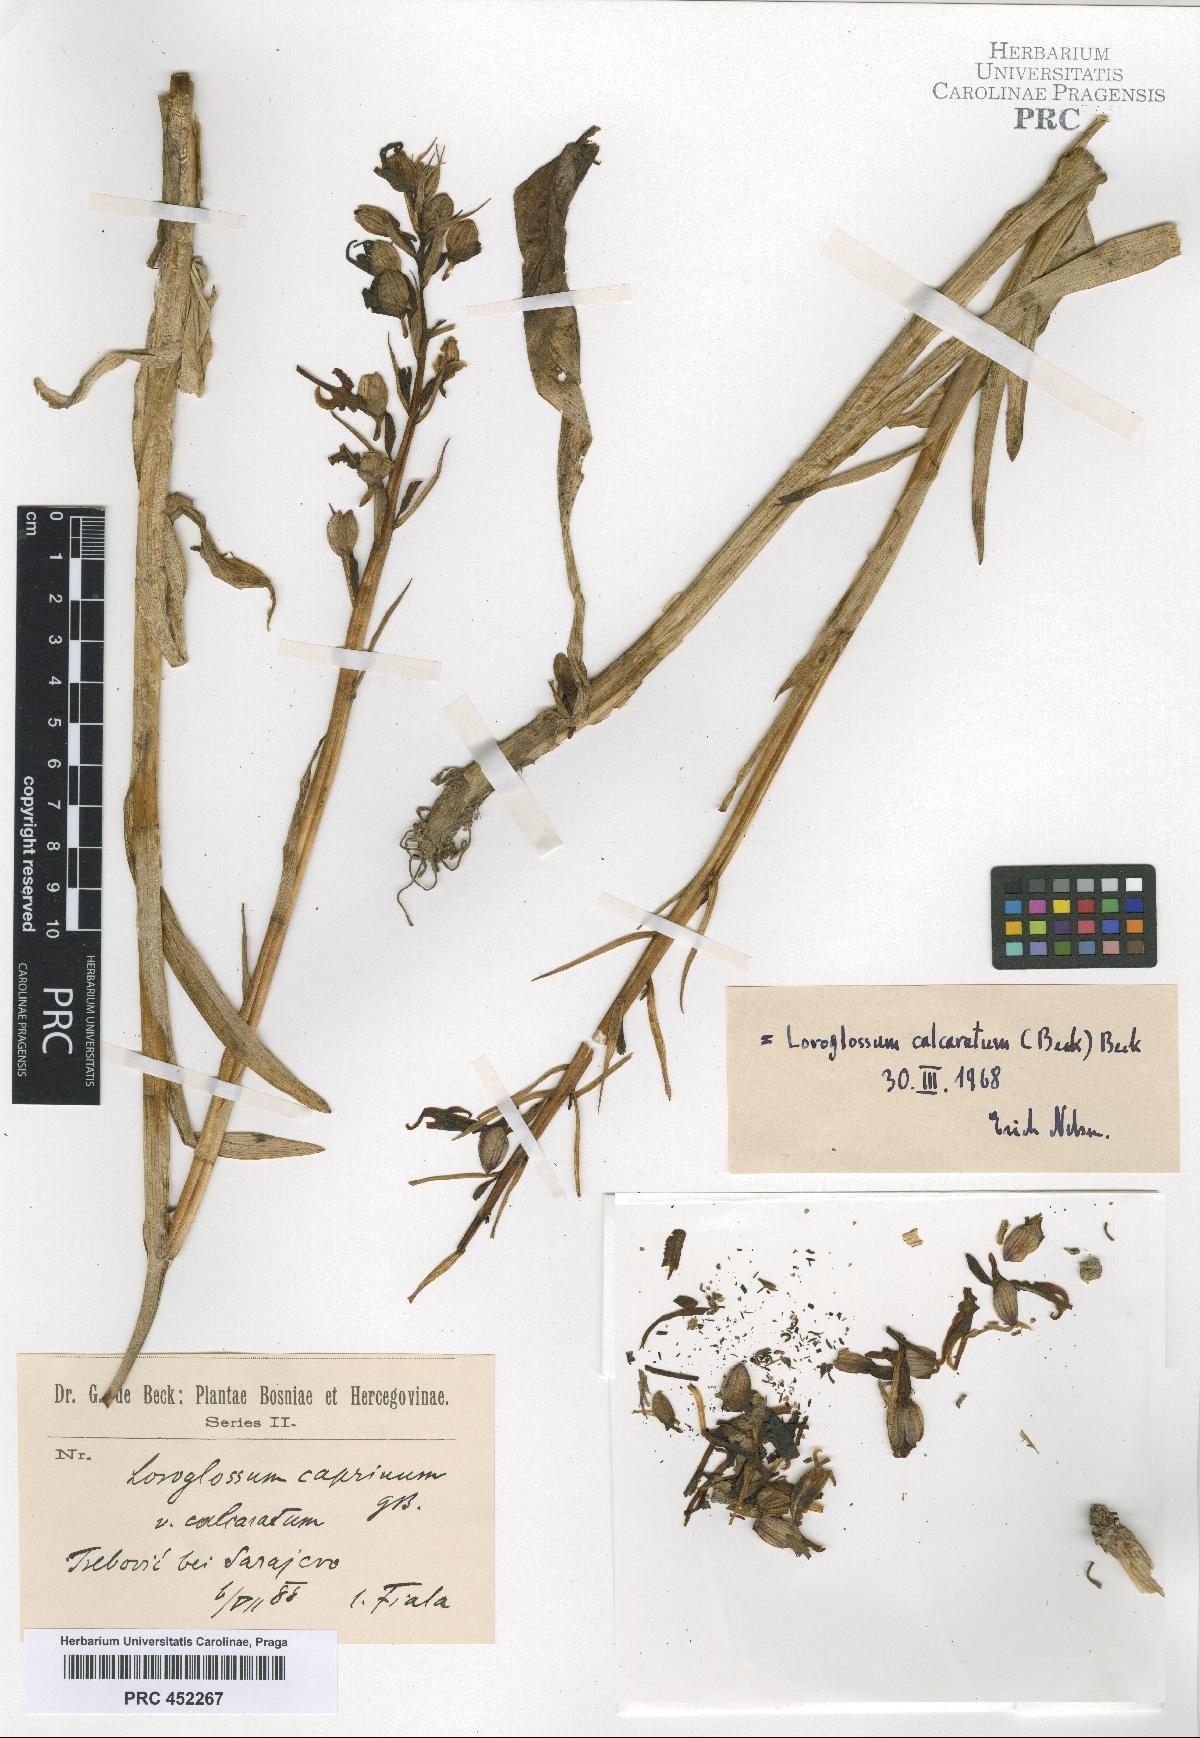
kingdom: Plantae
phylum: Tracheophyta
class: Liliopsida
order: Asparagales
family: Orchidaceae
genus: Himantoglossum
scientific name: Himantoglossum calcaratum
